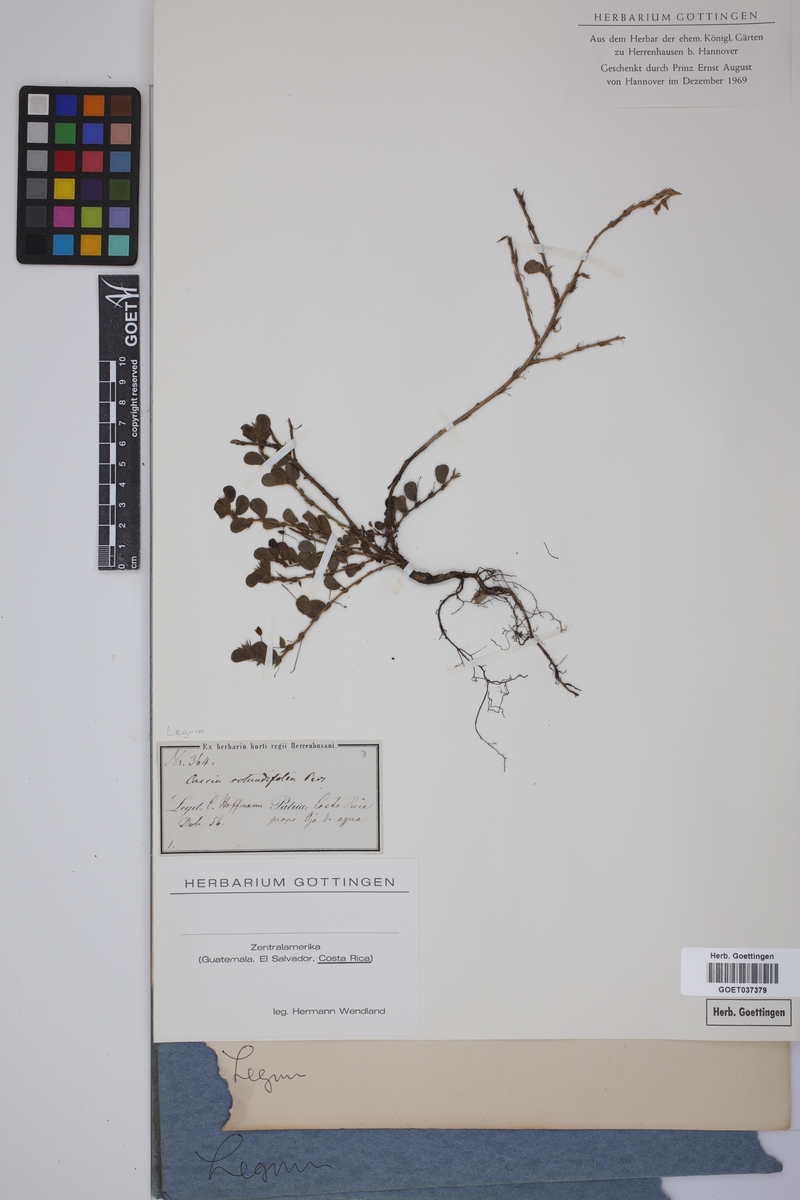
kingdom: Plantae
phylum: Tracheophyta
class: Magnoliopsida
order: Fabales
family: Fabaceae
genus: Chamaecrista
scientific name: Chamaecrista rotundifolia
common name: Round-leaf cassia
